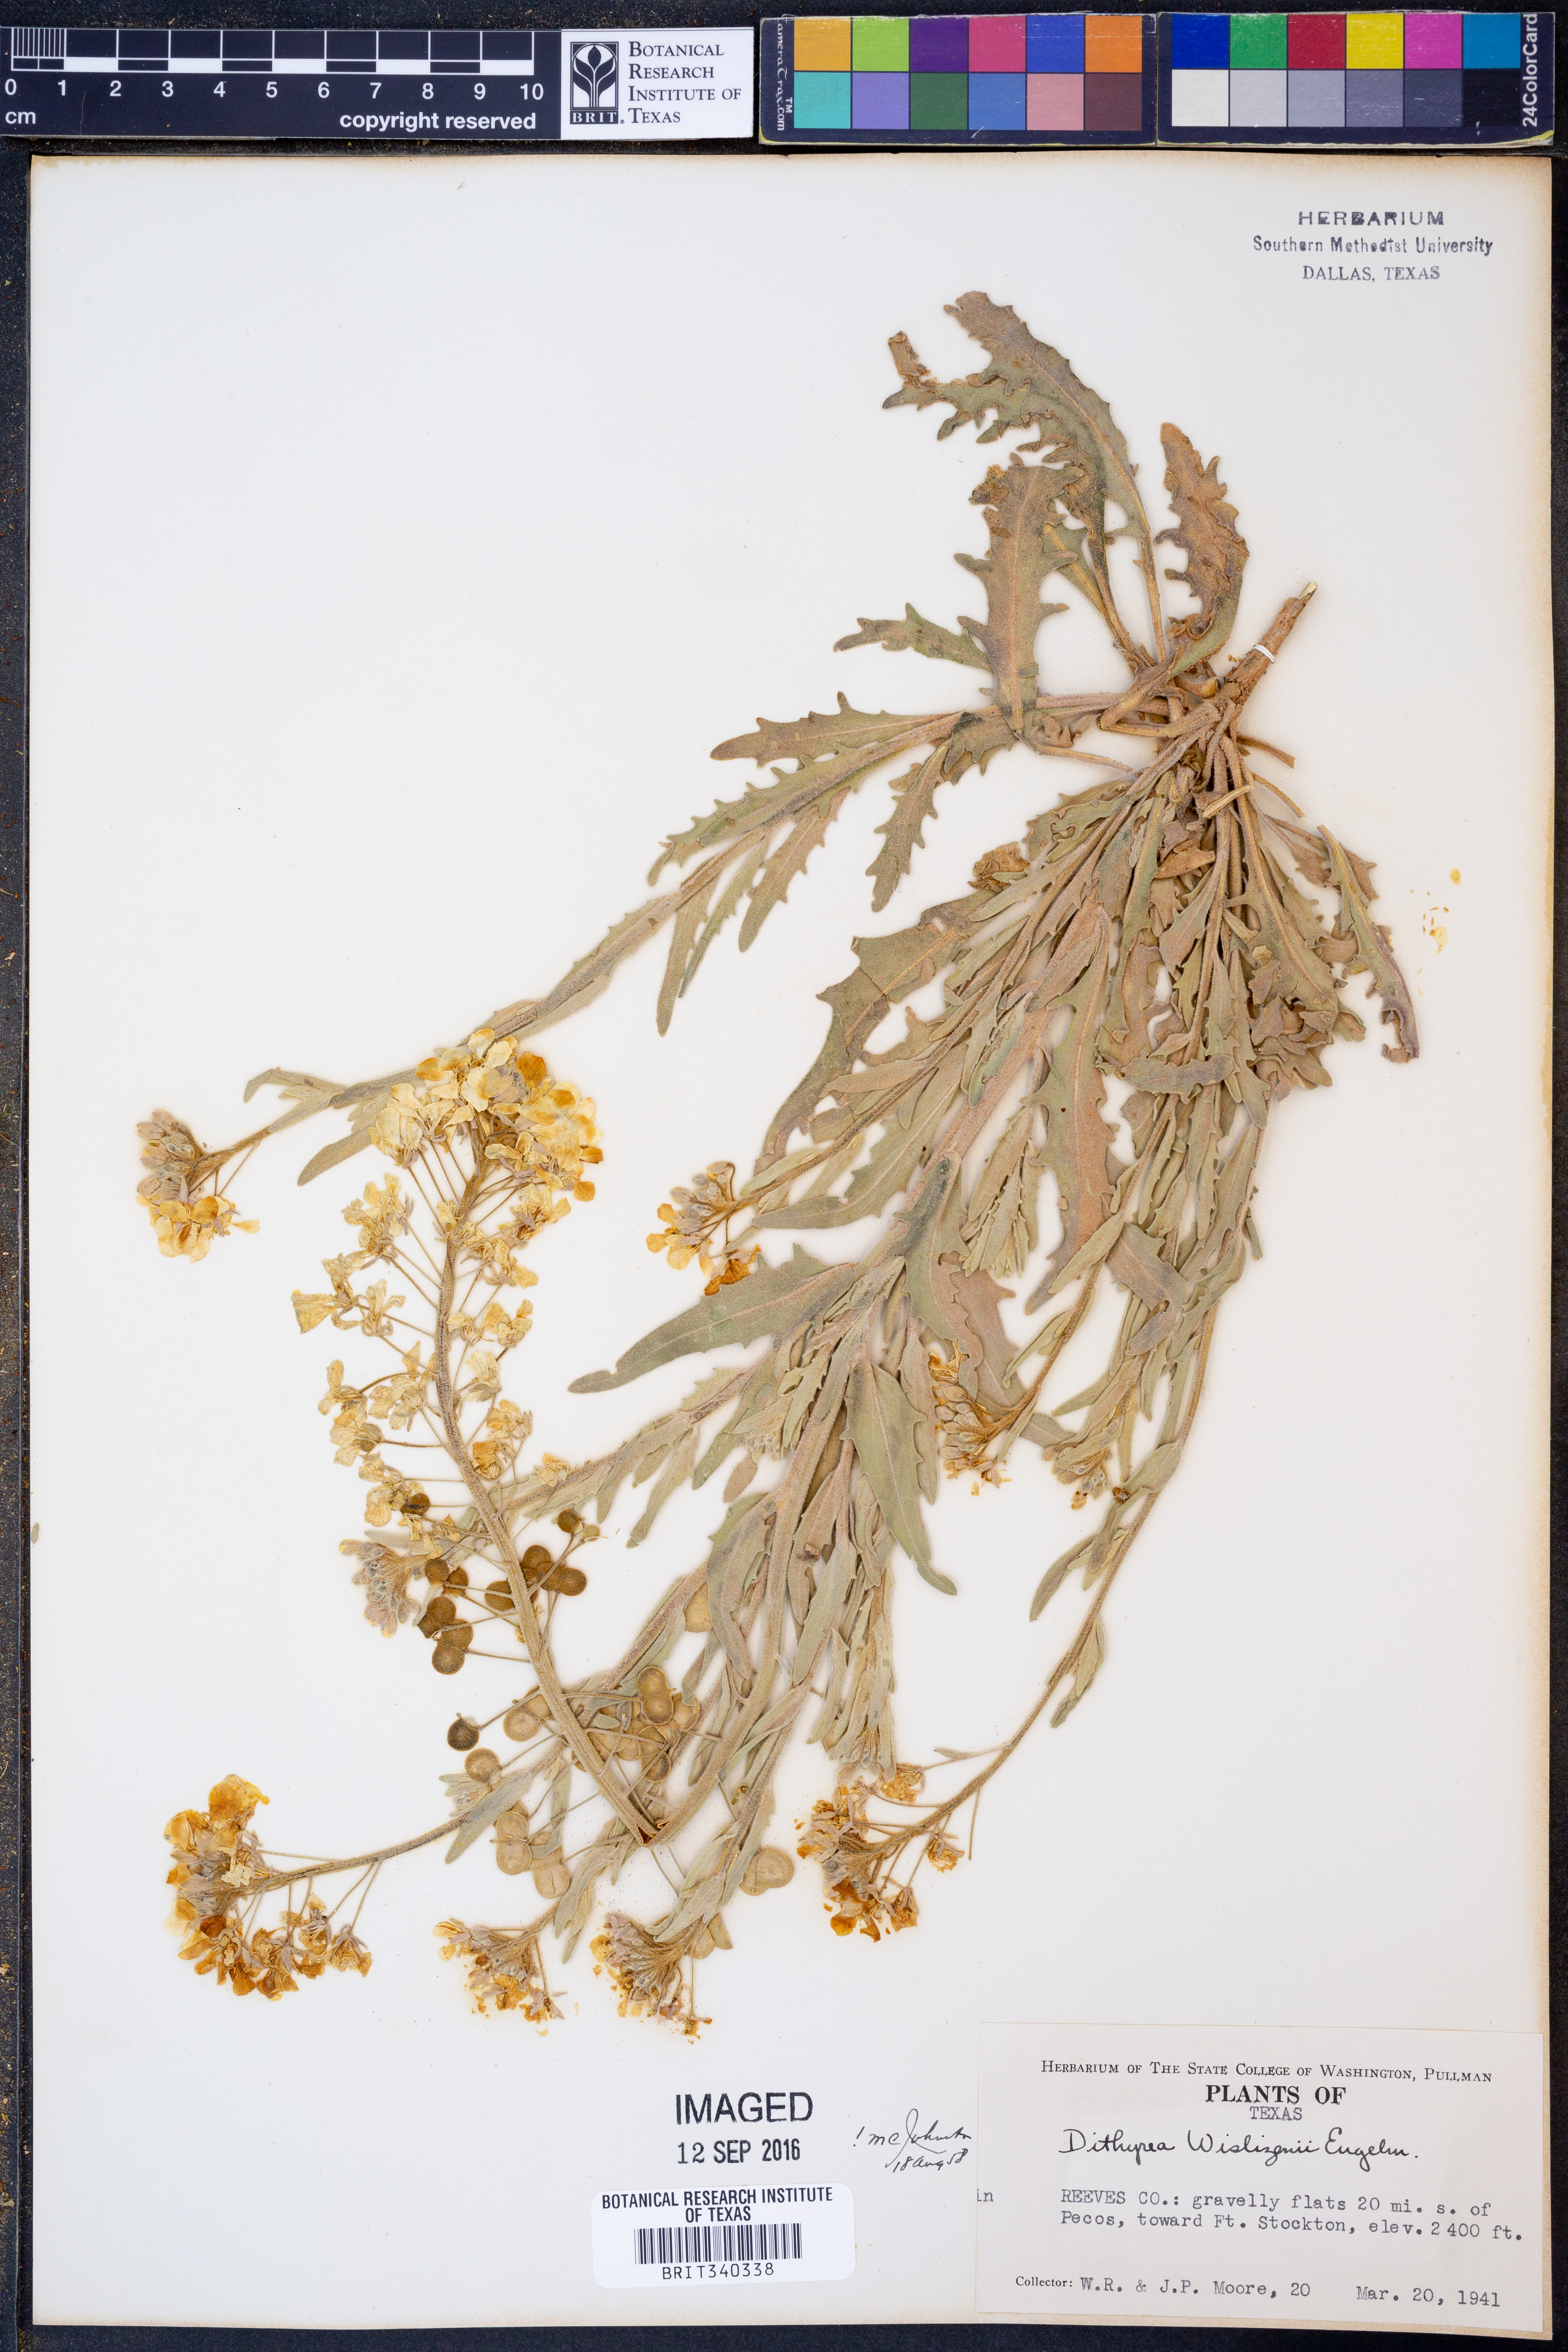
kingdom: Plantae
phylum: Tracheophyta
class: Magnoliopsida
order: Brassicales
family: Brassicaceae
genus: Dimorphocarpa
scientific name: Dimorphocarpa wislizenii
